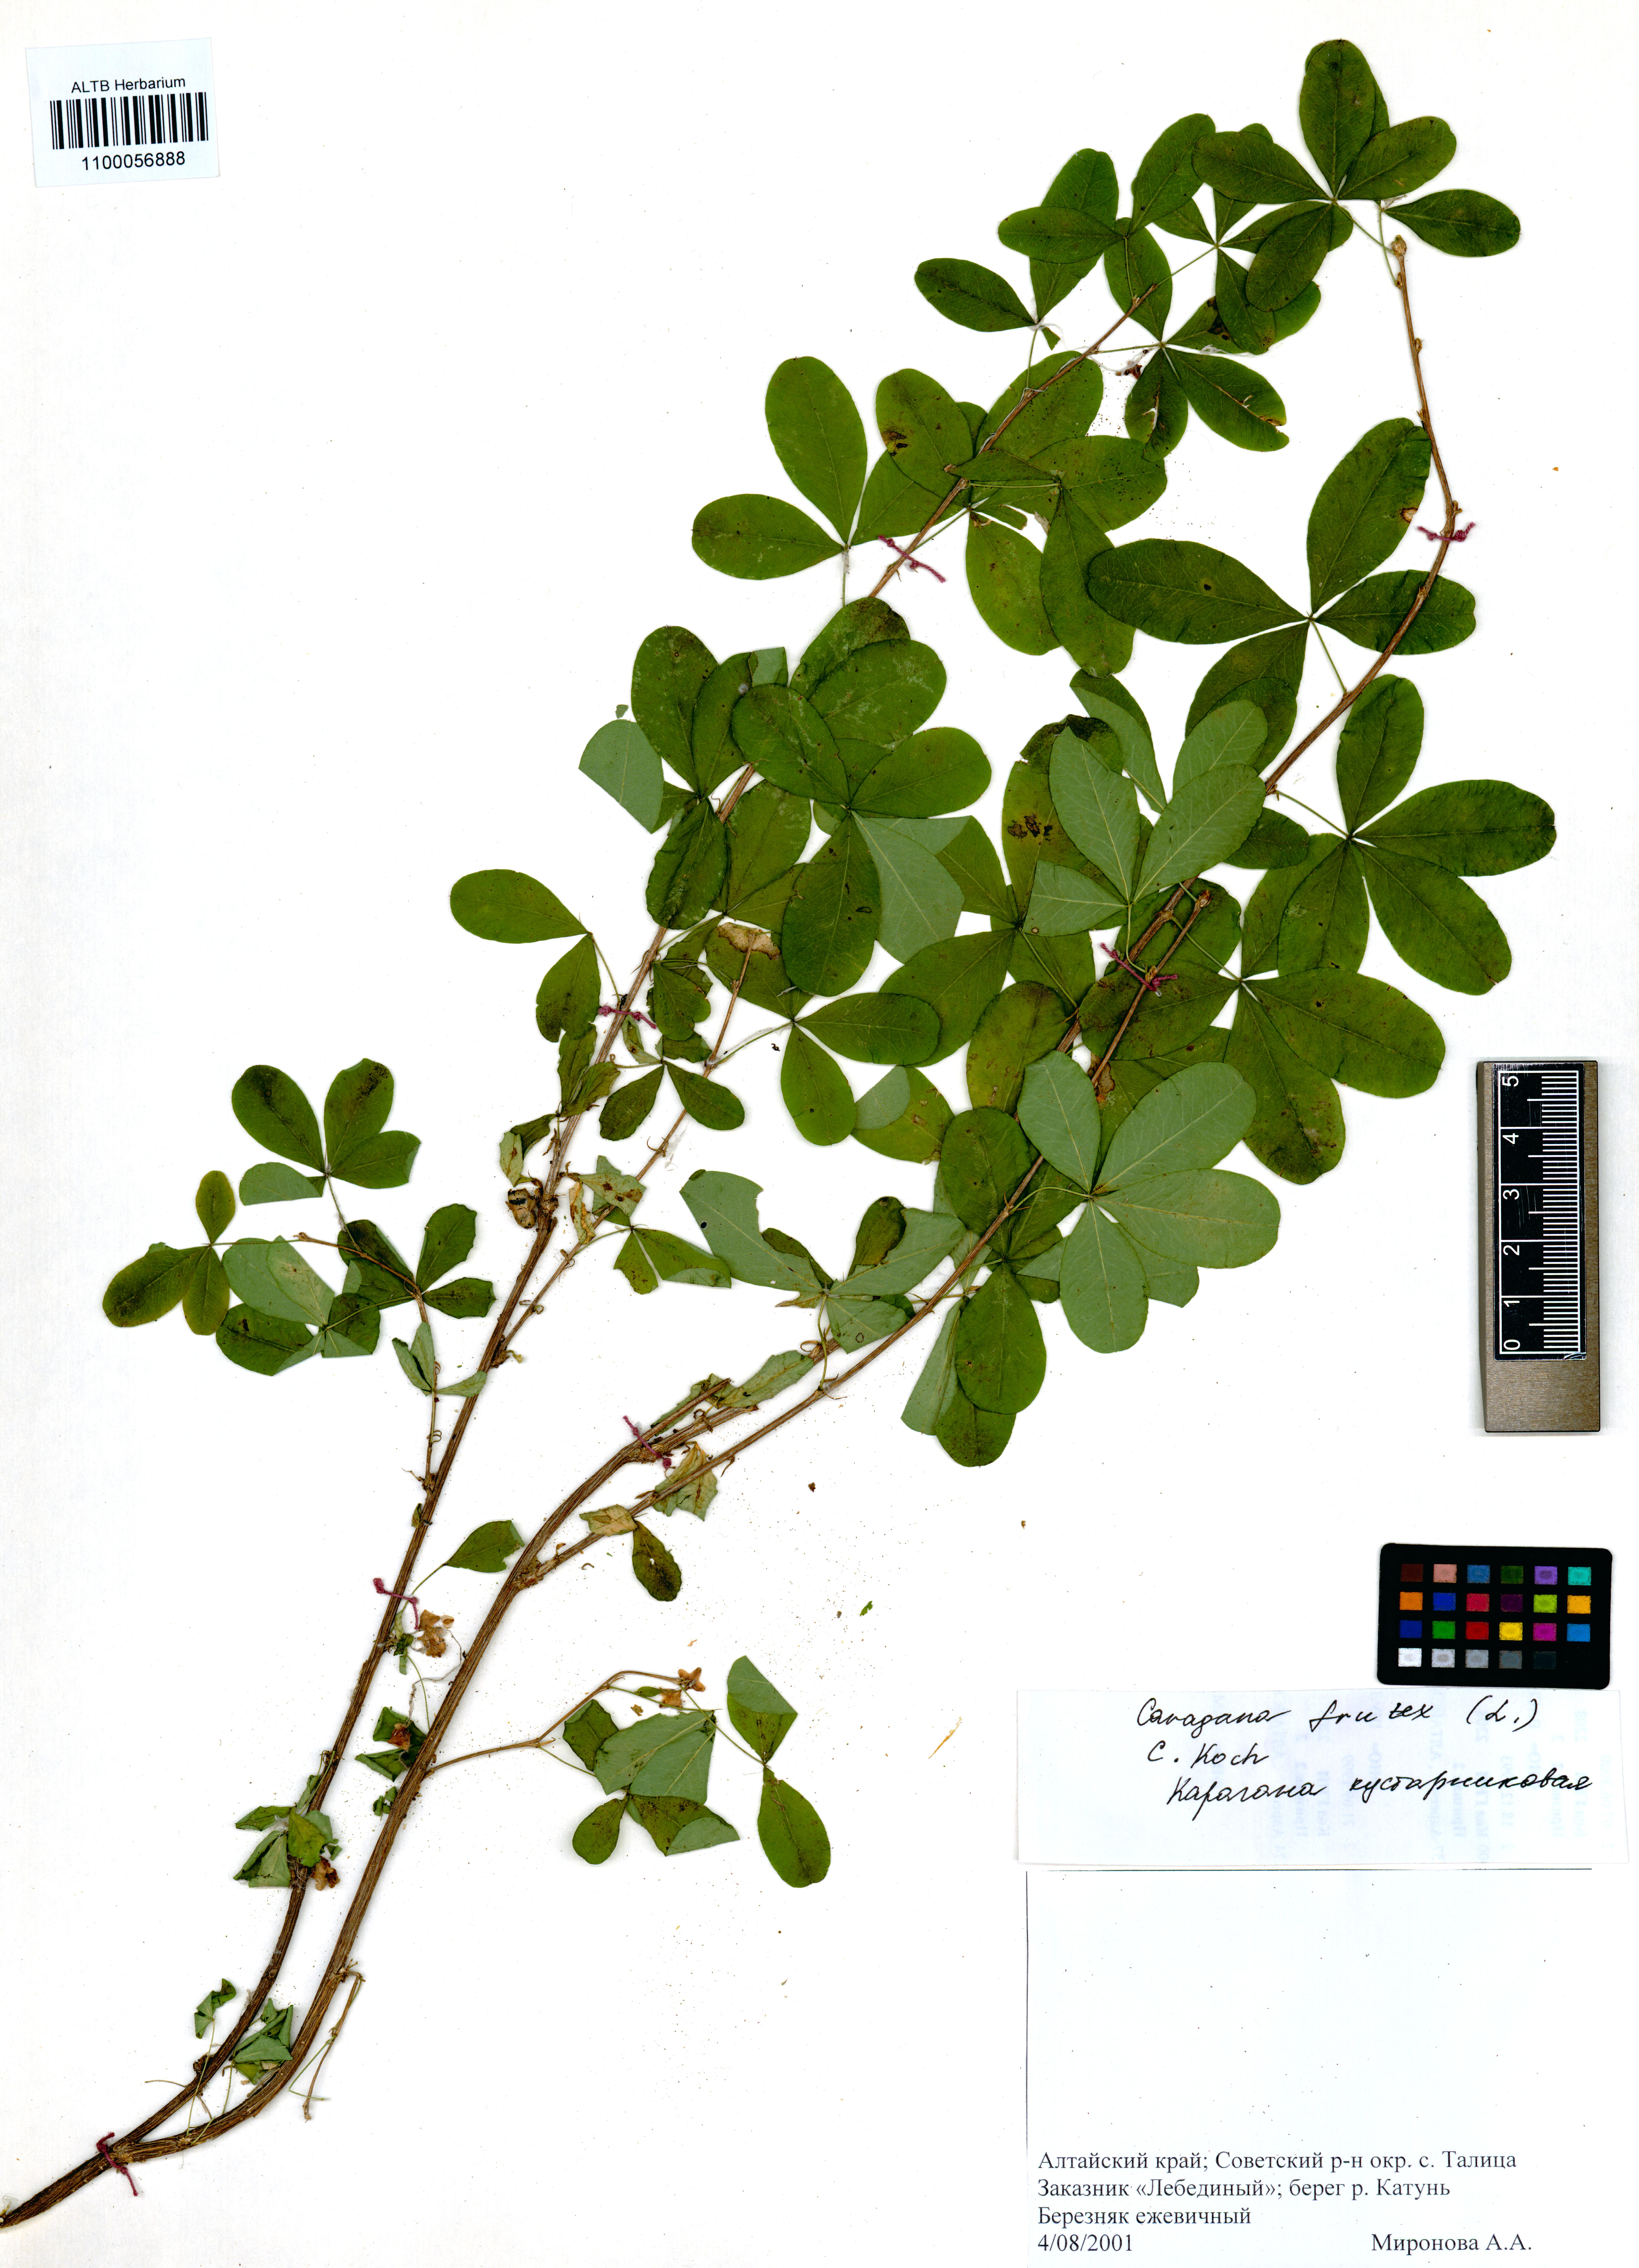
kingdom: Plantae
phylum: Tracheophyta
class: Magnoliopsida
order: Fabales
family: Fabaceae
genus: Caragana
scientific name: Caragana frutex
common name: Russian peashrub
